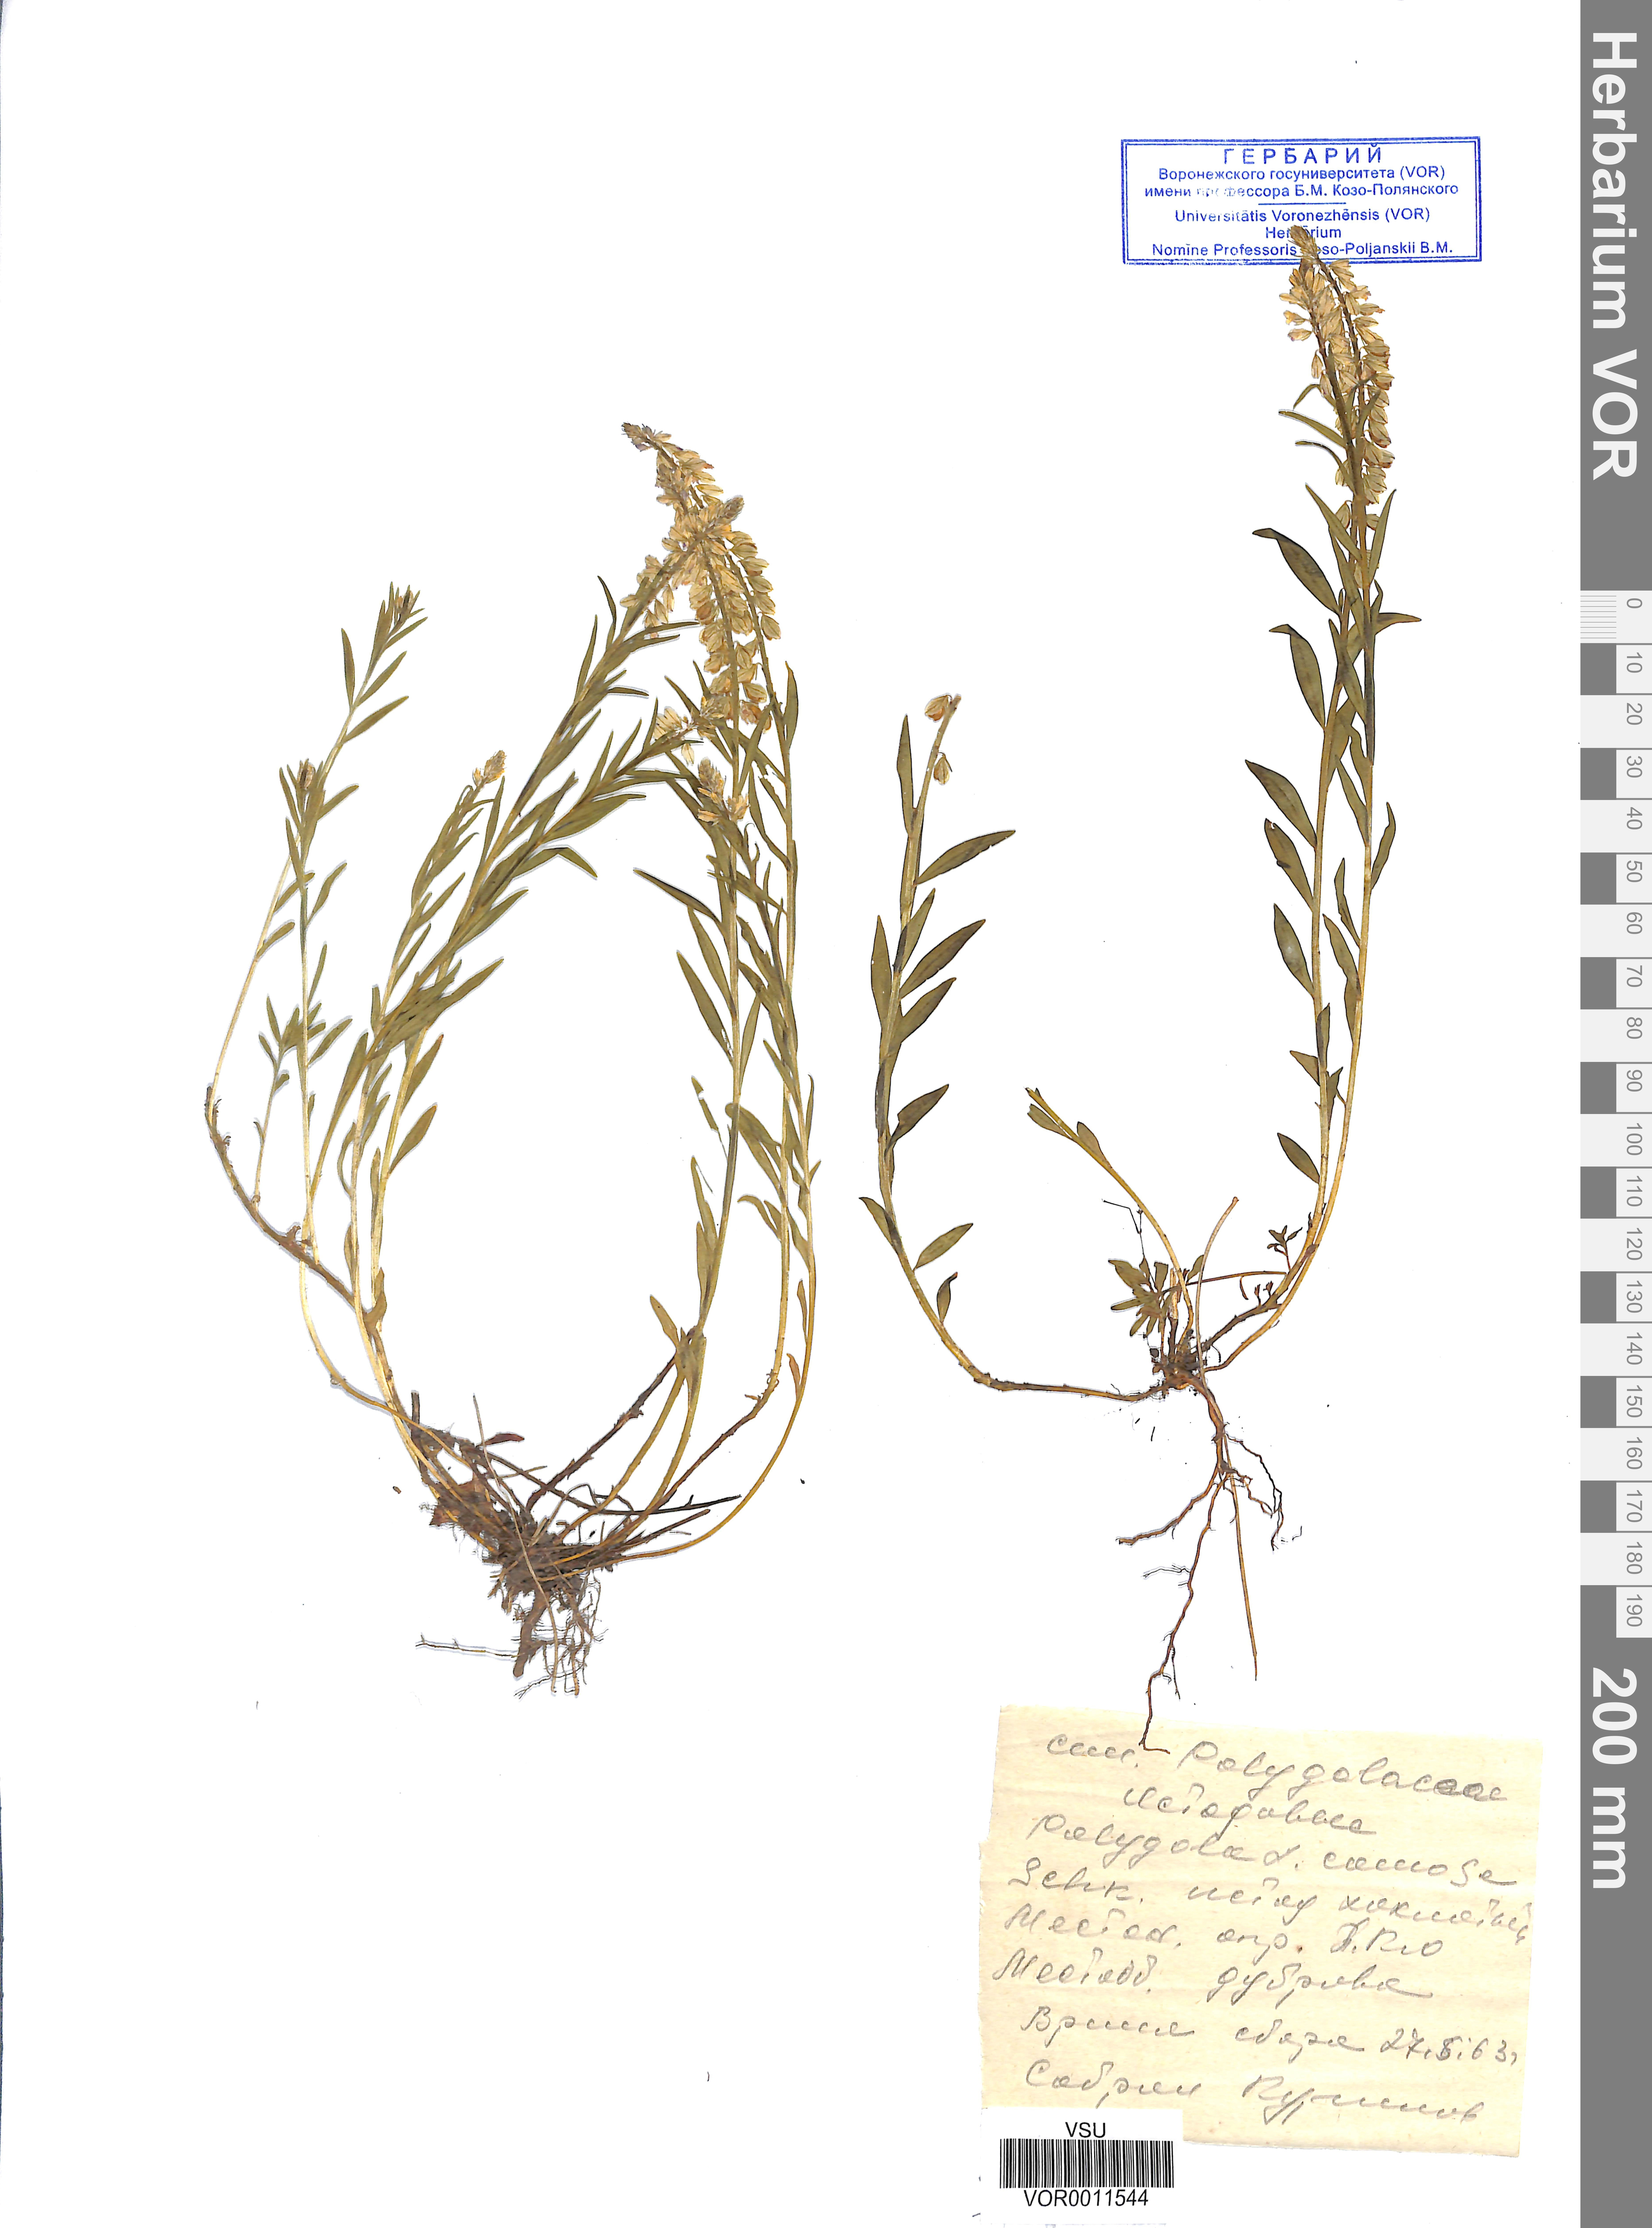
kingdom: Plantae
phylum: Tracheophyta
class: Magnoliopsida
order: Fabales
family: Polygalaceae
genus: Polygala
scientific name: Polygala comosa
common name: Tufted milkwort
